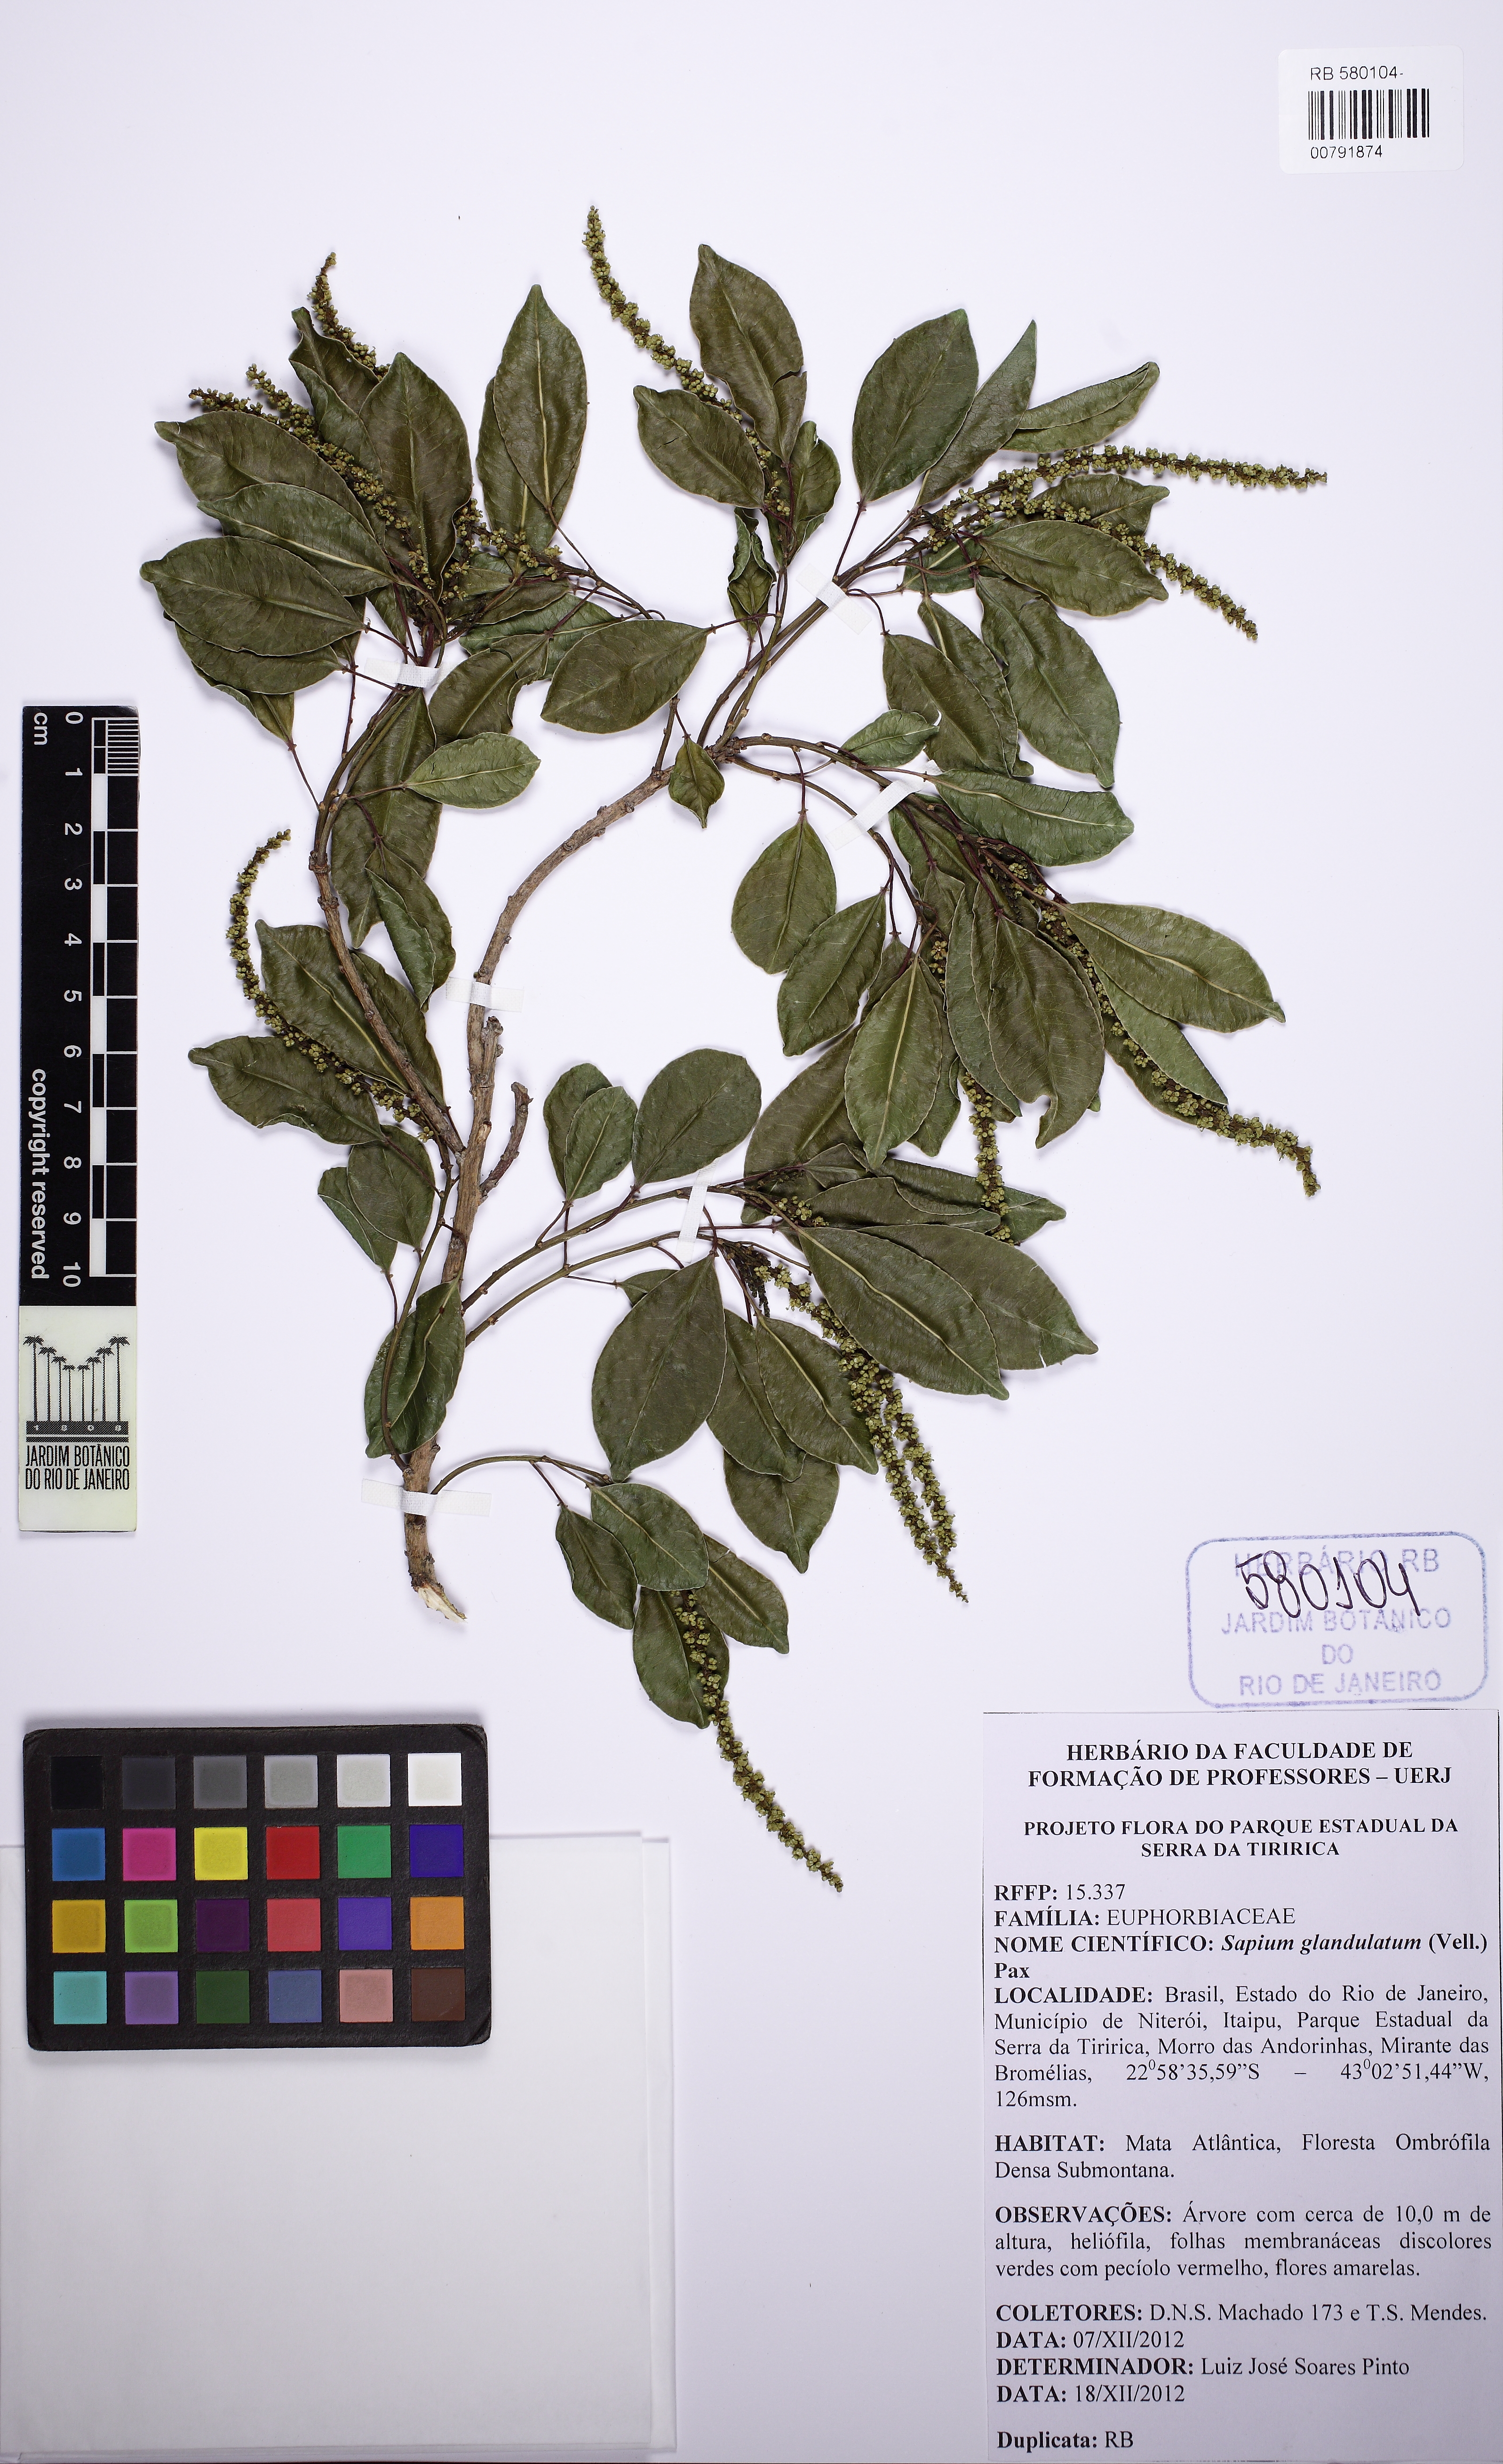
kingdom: Plantae
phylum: Tracheophyta
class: Magnoliopsida
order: Malpighiales
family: Euphorbiaceae
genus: Sapium
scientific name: Sapium glandulosum
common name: Milktree
